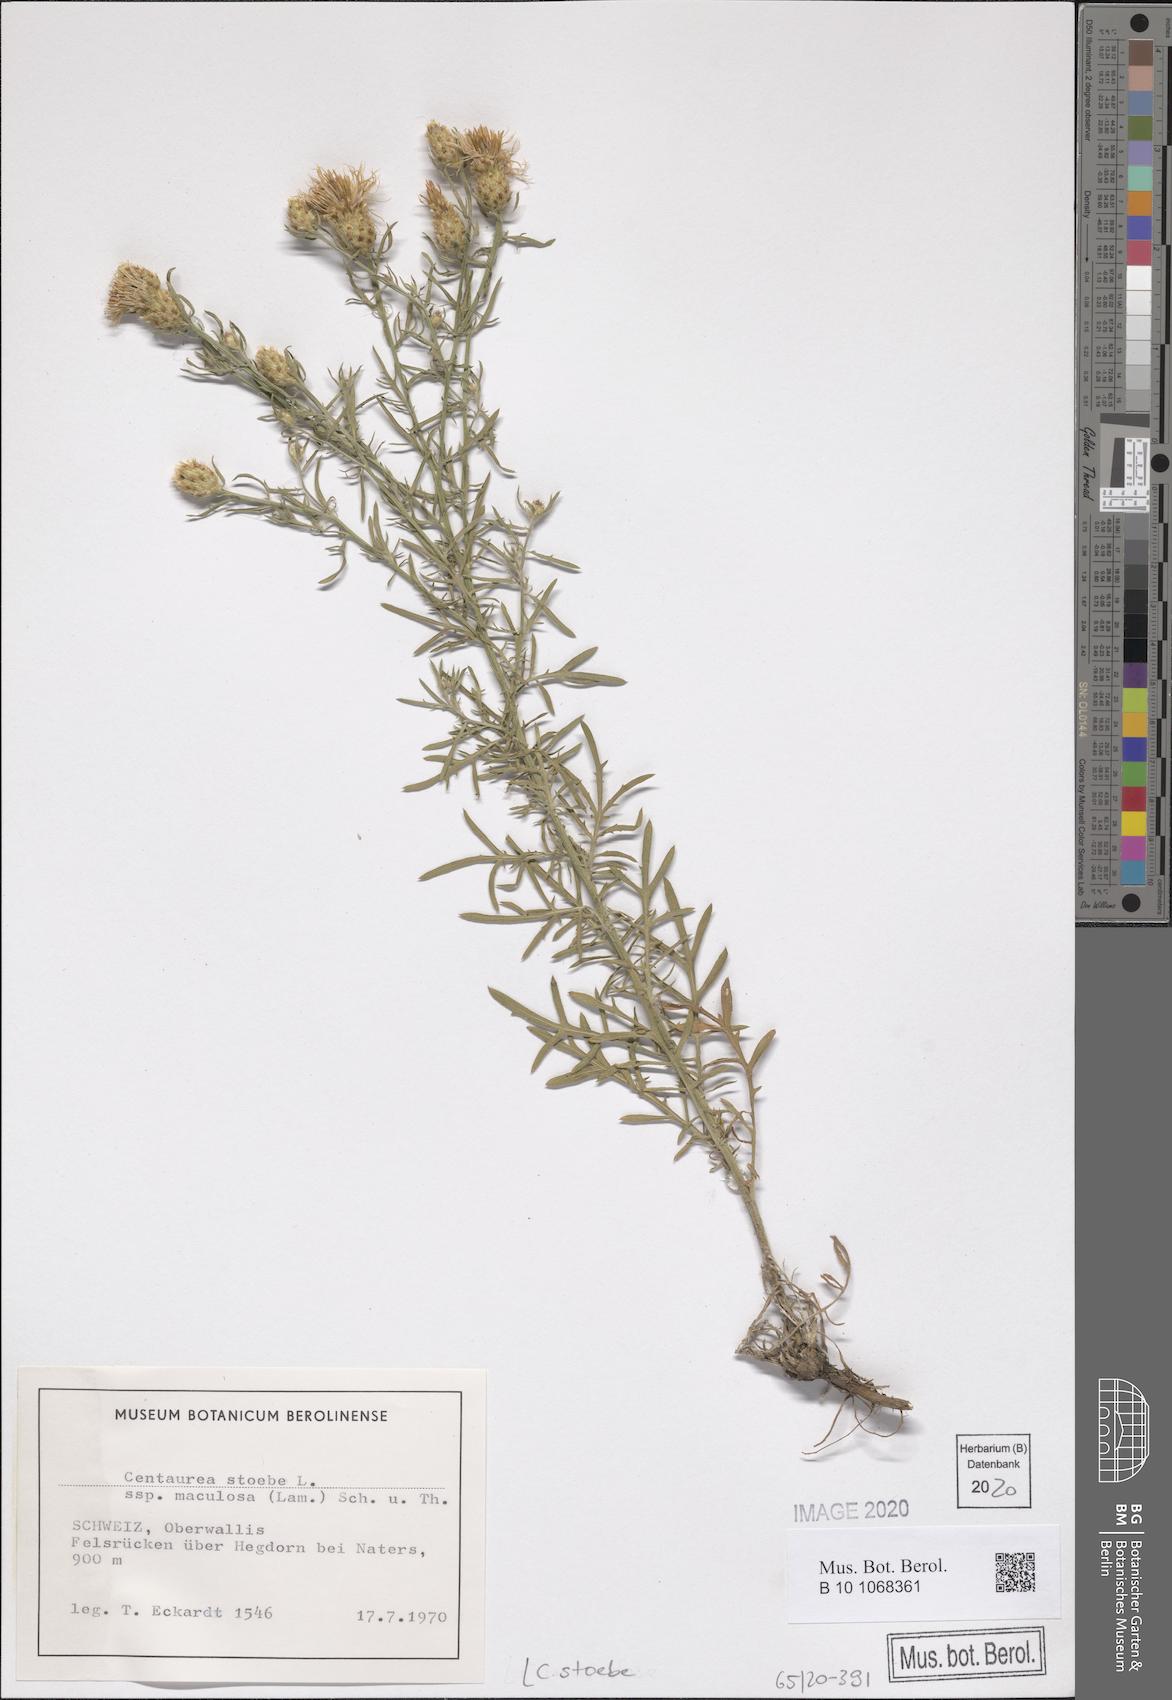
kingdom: Plantae
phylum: Tracheophyta
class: Magnoliopsida
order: Asterales
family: Asteraceae
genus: Centaurea
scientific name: Centaurea stoebe
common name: Spotted knapweed
